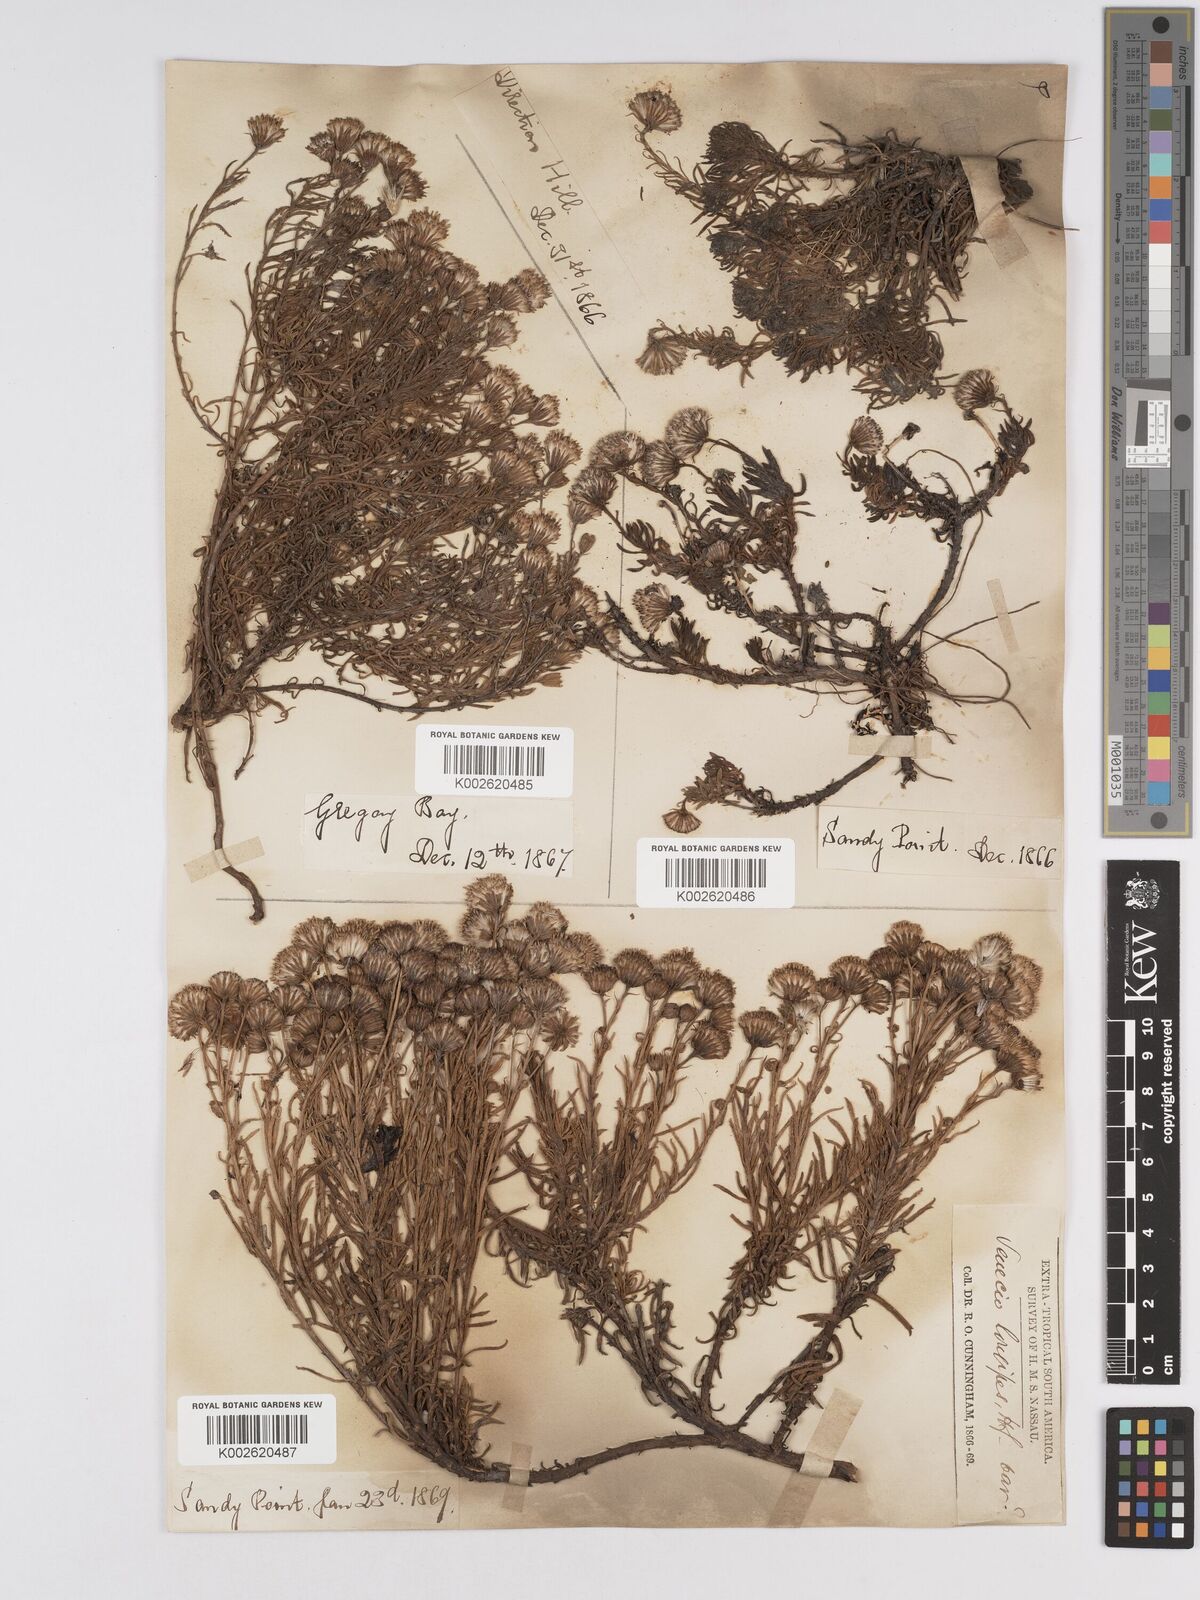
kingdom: Plantae
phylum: Tracheophyta
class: Magnoliopsida
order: Asterales
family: Asteraceae
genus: Senecio
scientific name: Senecio tricuspidatus
